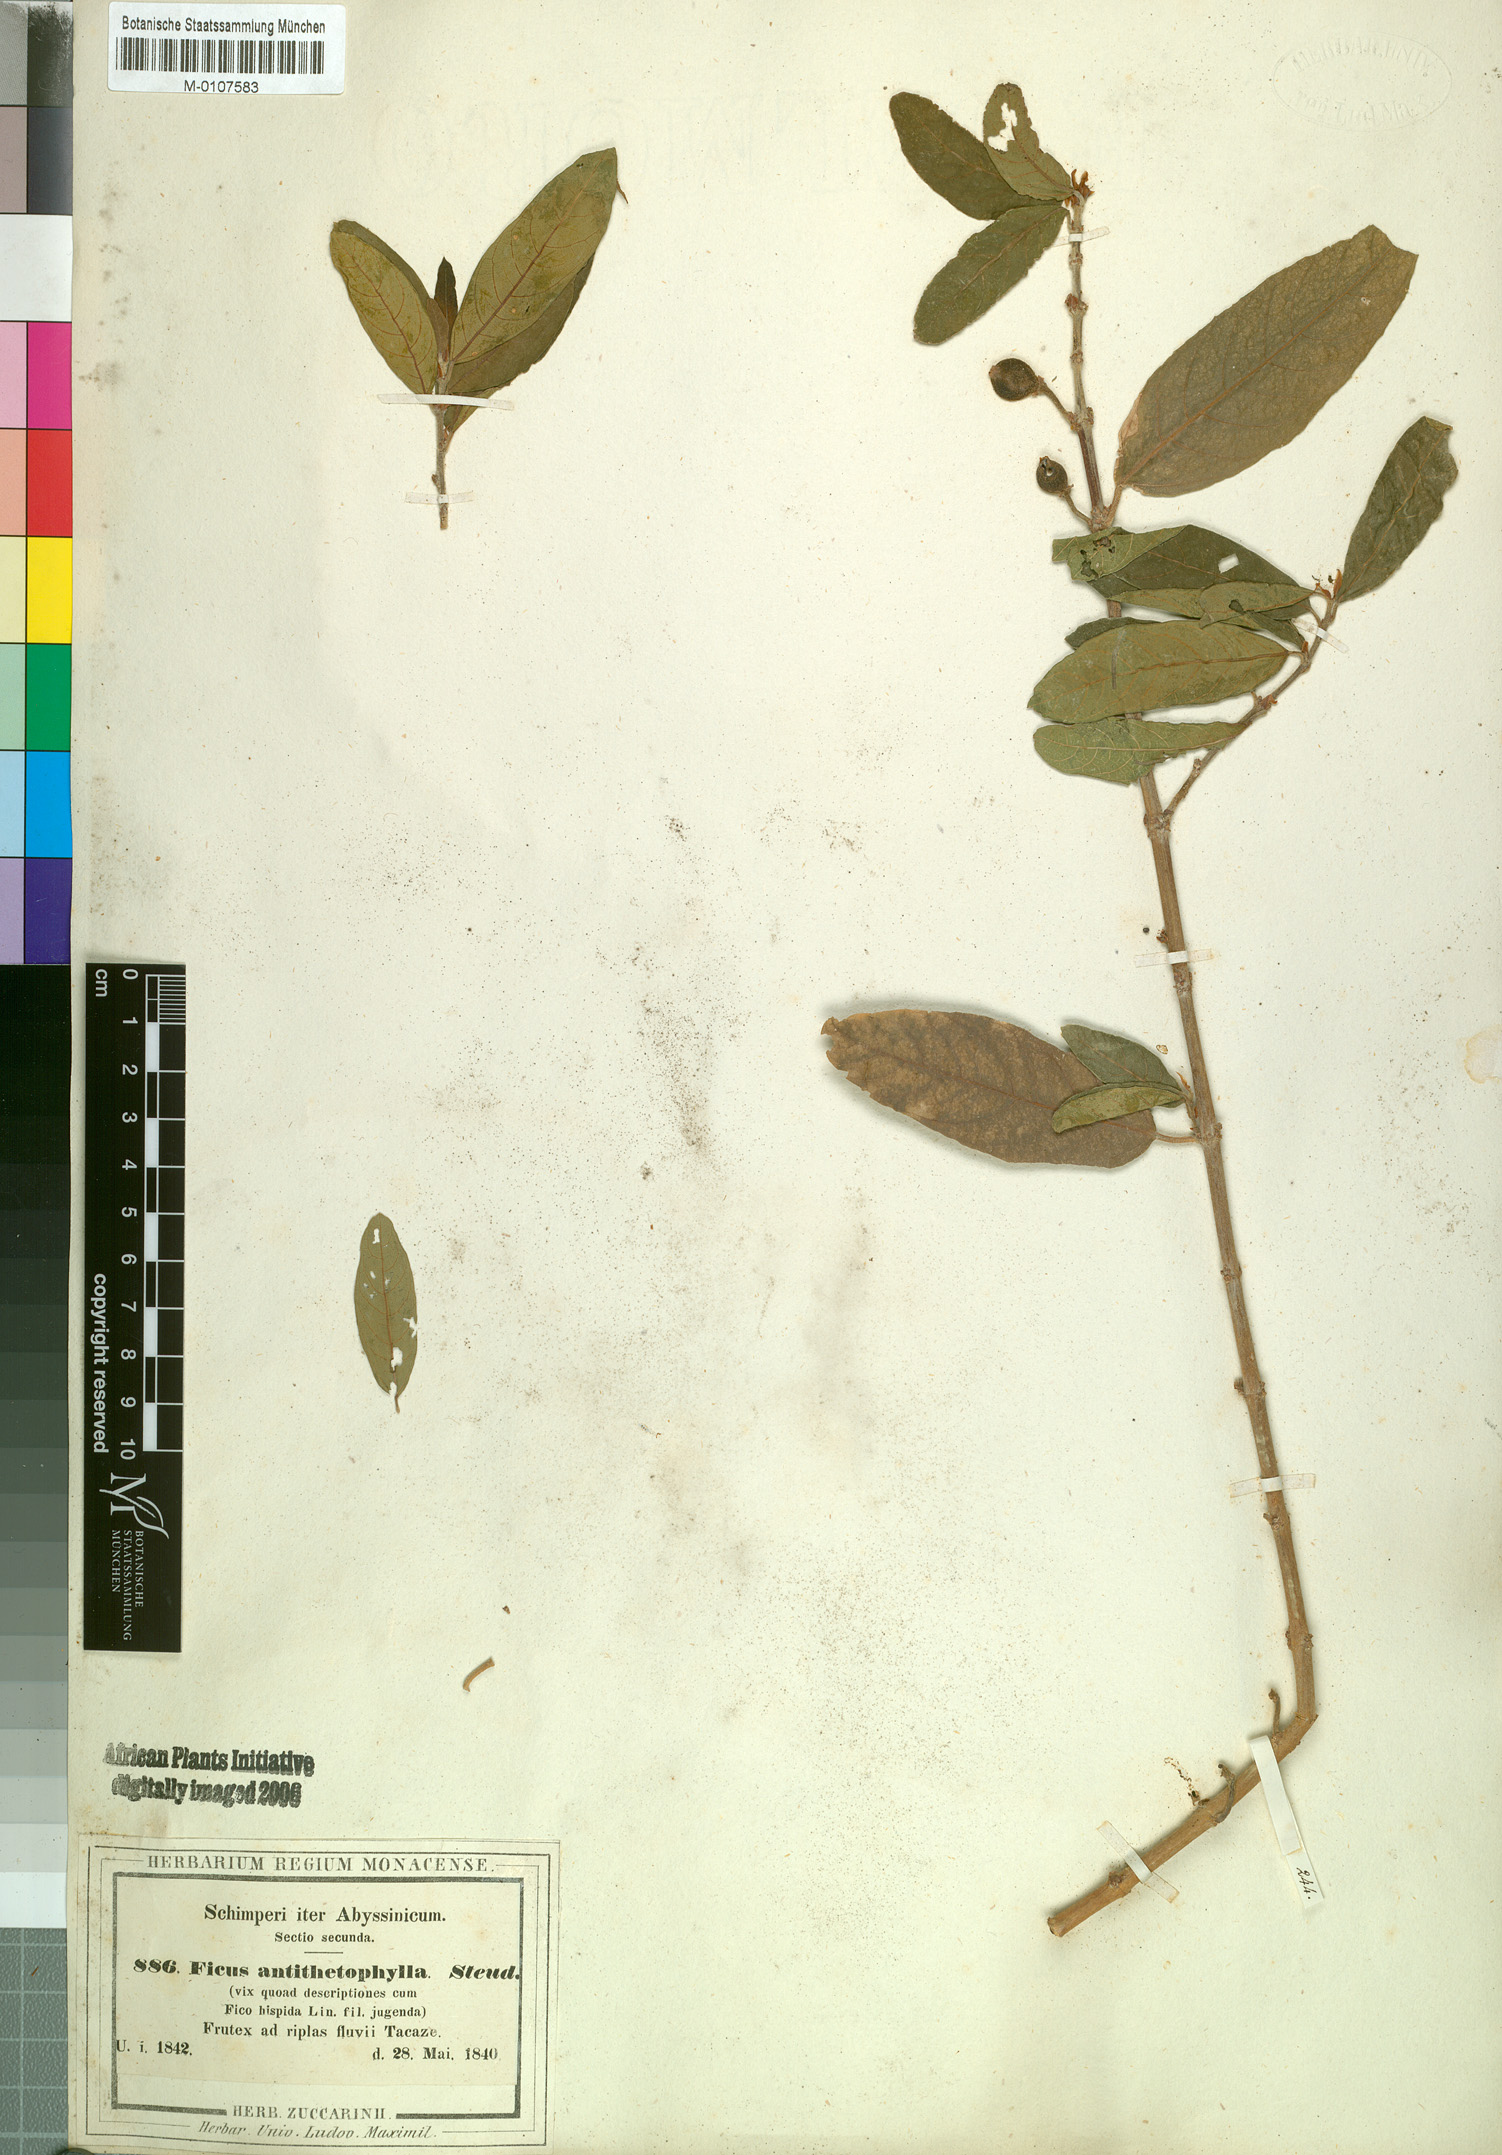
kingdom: Plantae
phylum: Tracheophyta
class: Magnoliopsida
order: Rosales
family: Moraceae
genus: Ficus
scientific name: Ficus capreifolia
